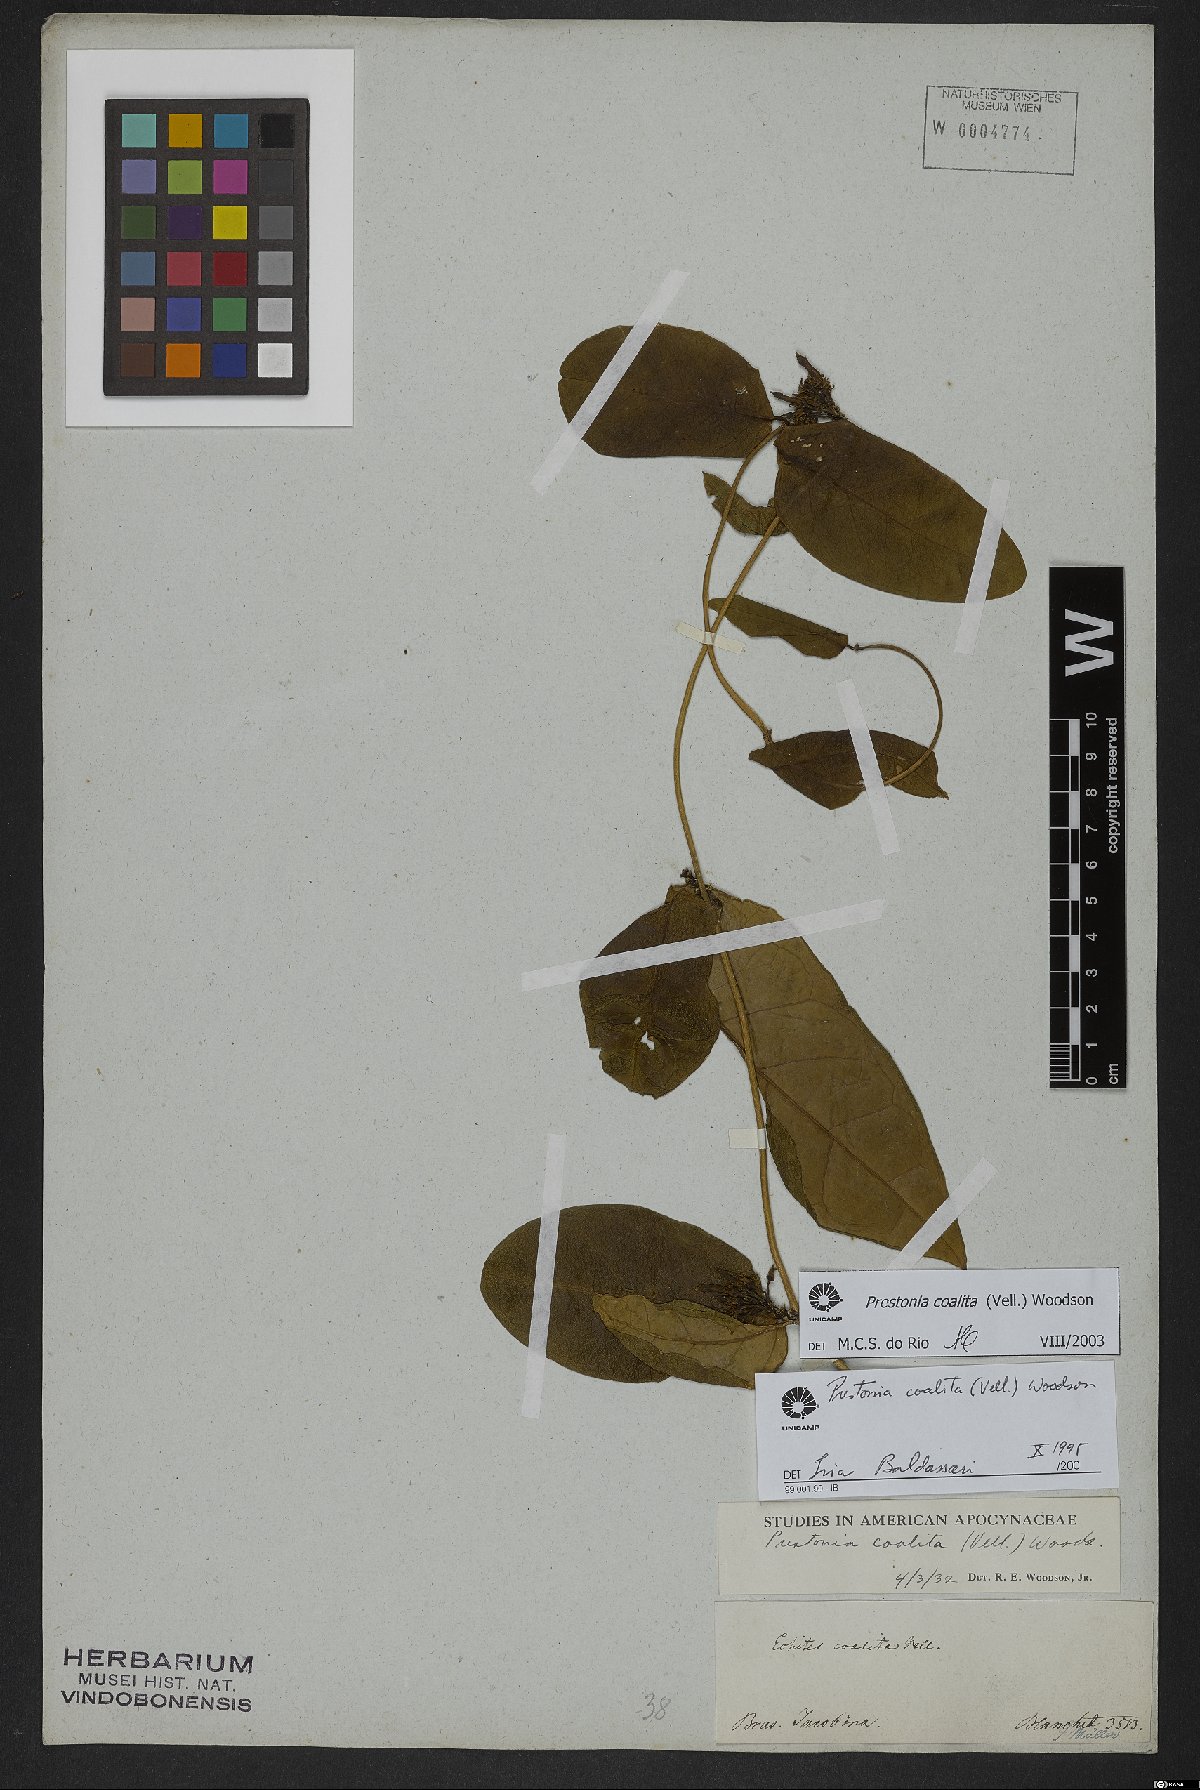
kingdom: Plantae
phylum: Tracheophyta
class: Magnoliopsida
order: Gentianales
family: Apocynaceae
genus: Prestonia
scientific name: Prestonia coalita
